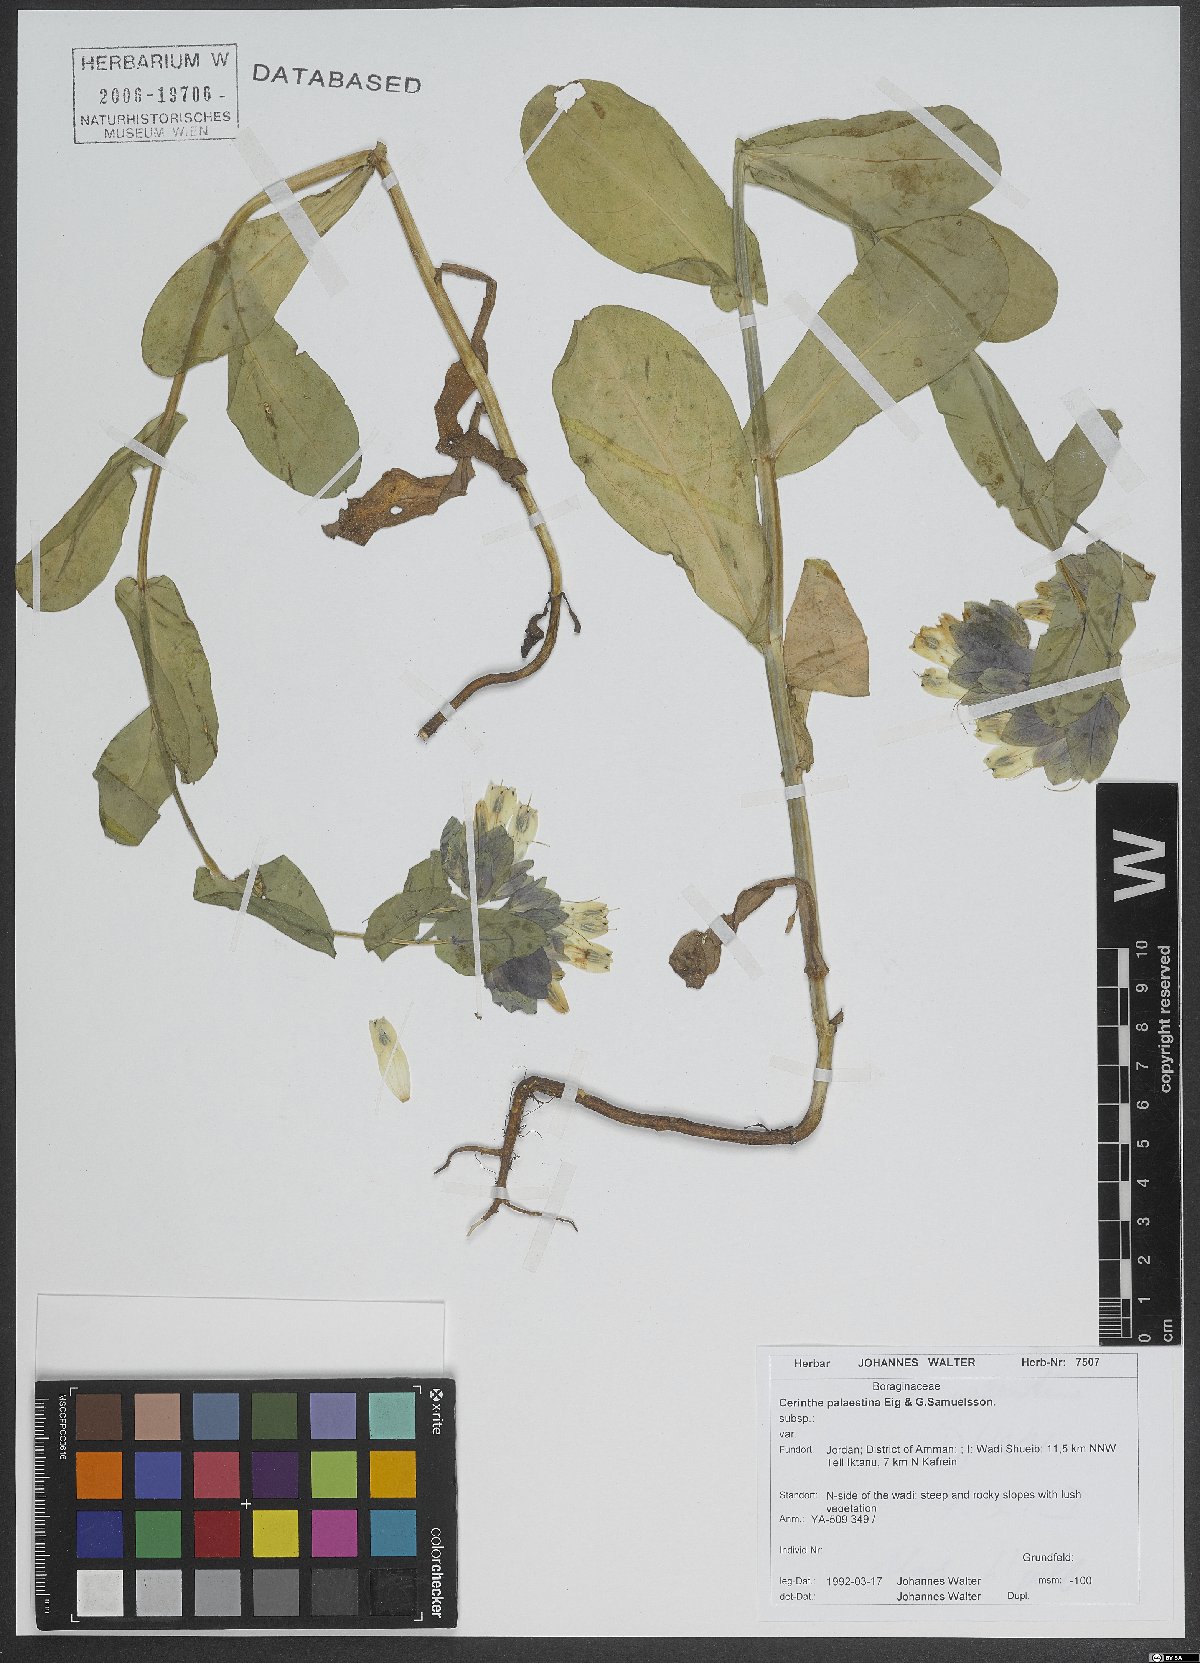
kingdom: Plantae
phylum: Tracheophyta
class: Magnoliopsida
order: Boraginales
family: Boraginaceae
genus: Cerinthe
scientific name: Cerinthe palaestina
